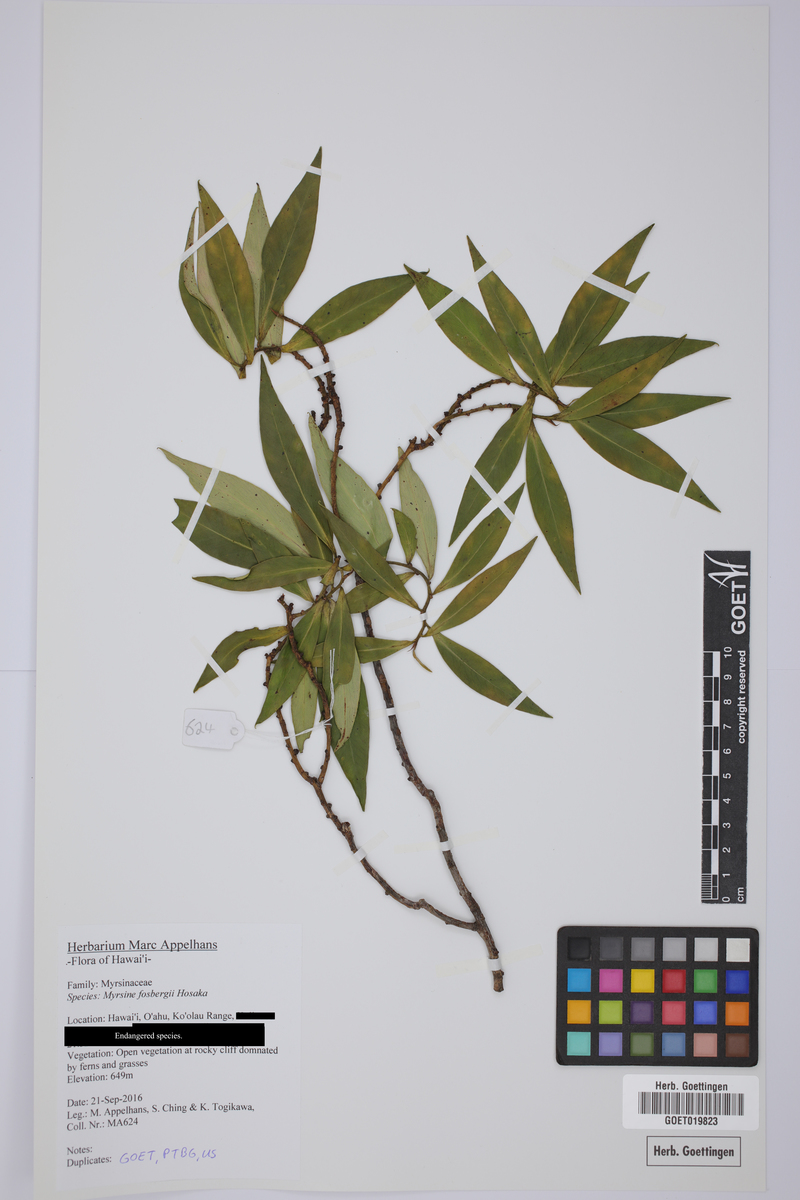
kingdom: Plantae
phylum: Tracheophyta
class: Magnoliopsida
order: Ericales
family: Primulaceae
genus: Myrsine
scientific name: Myrsine fosbergii
